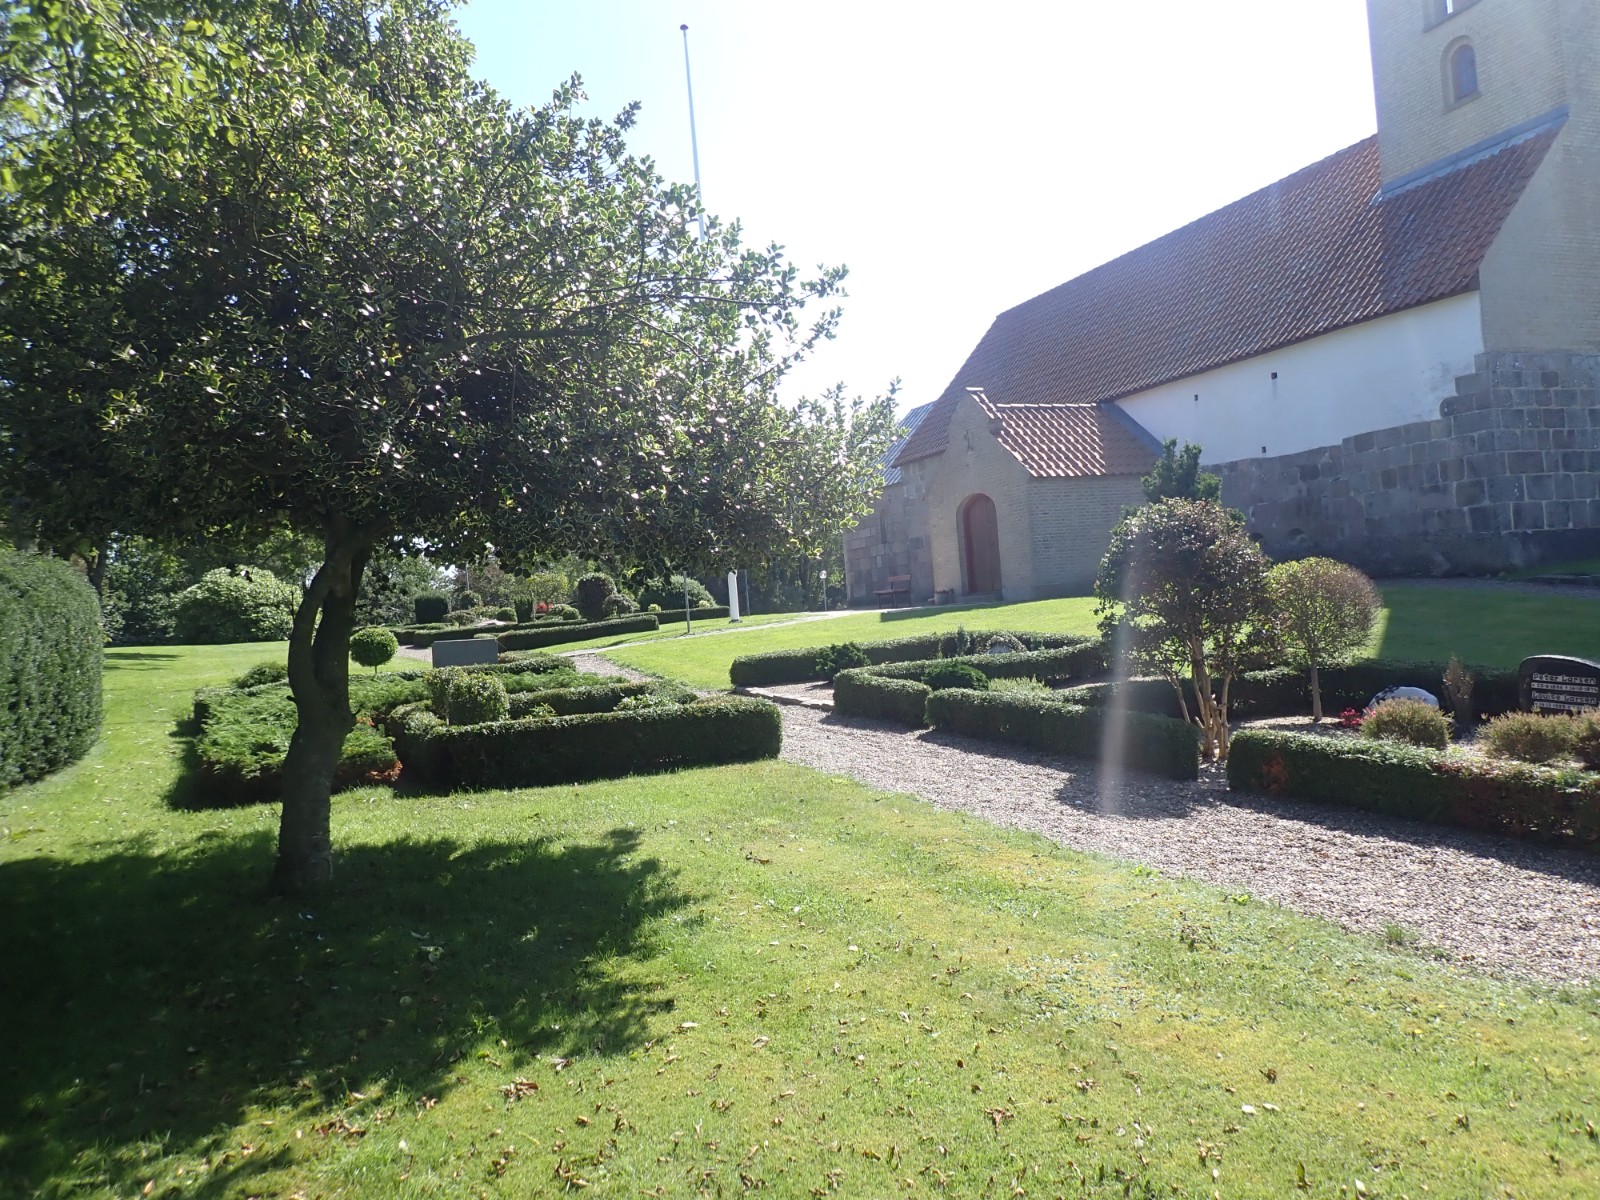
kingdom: Fungi
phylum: Basidiomycota
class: Agaricomycetes
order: Agaricales
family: Psathyrellaceae
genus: Coprinellus
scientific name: Coprinellus disseminatus
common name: bredsået blækhat
